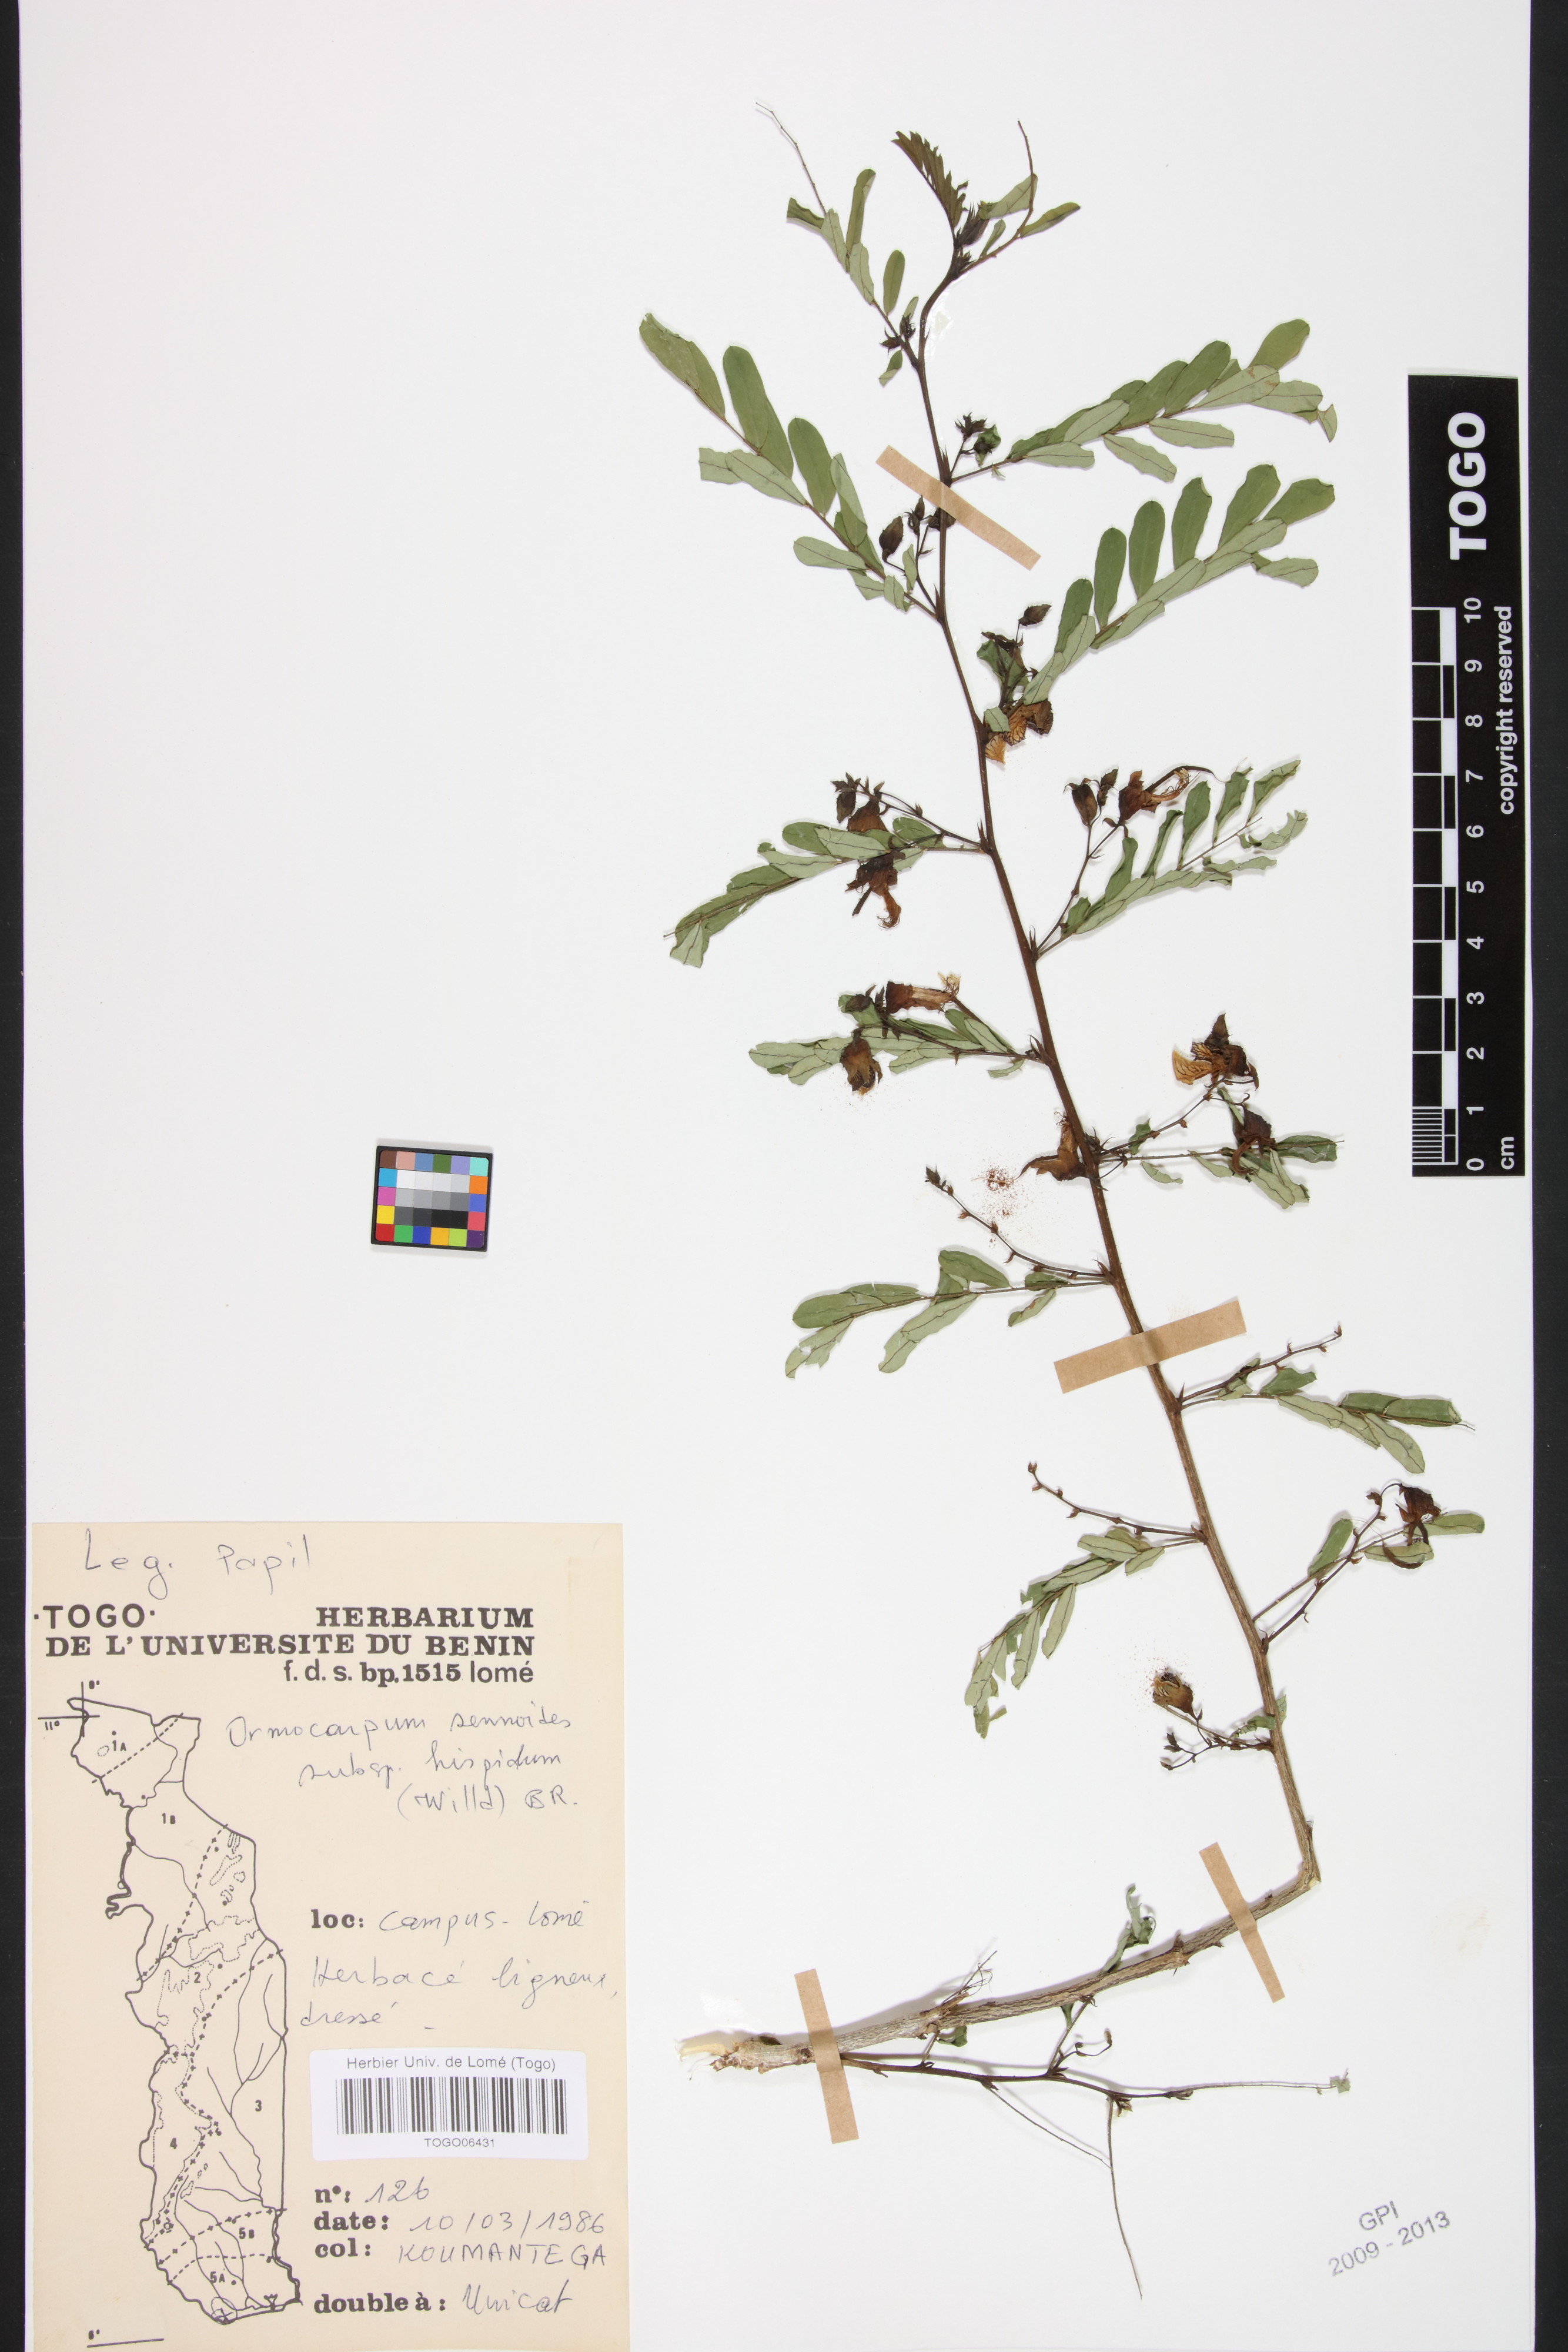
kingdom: Plantae
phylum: Tracheophyta
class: Magnoliopsida
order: Fabales
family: Fabaceae
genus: Ormocarpum
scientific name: Ormocarpum pubescens
